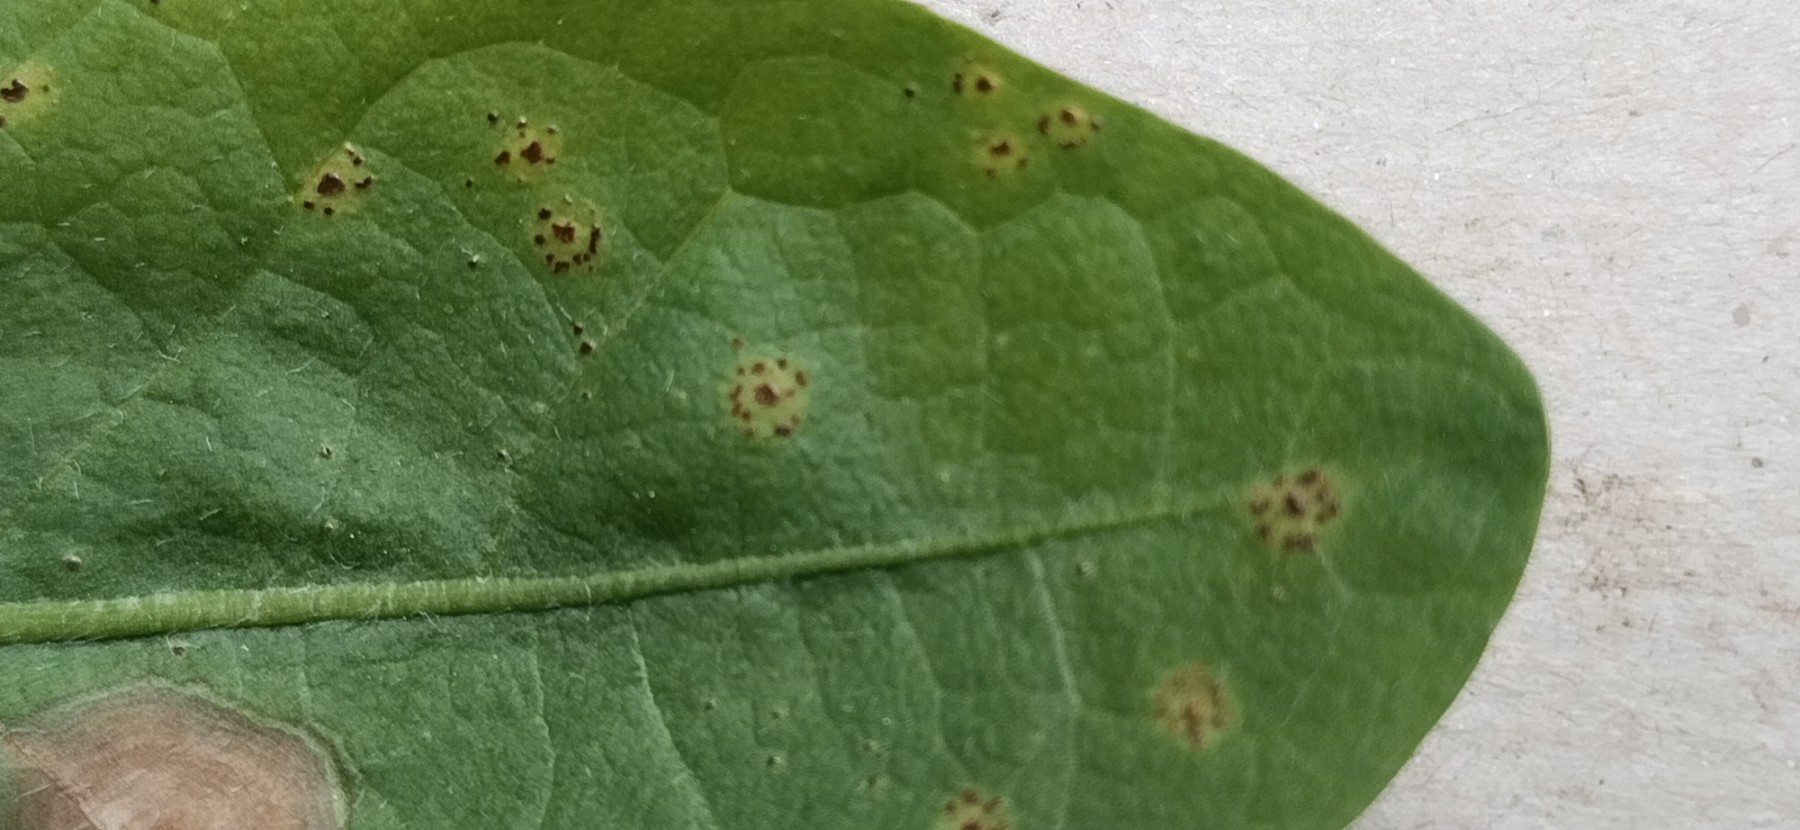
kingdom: Fungi
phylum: Basidiomycota
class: Pucciniomycetes
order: Pucciniales
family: Pucciniaceae
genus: Puccinia
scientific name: Puccinia hieracii
